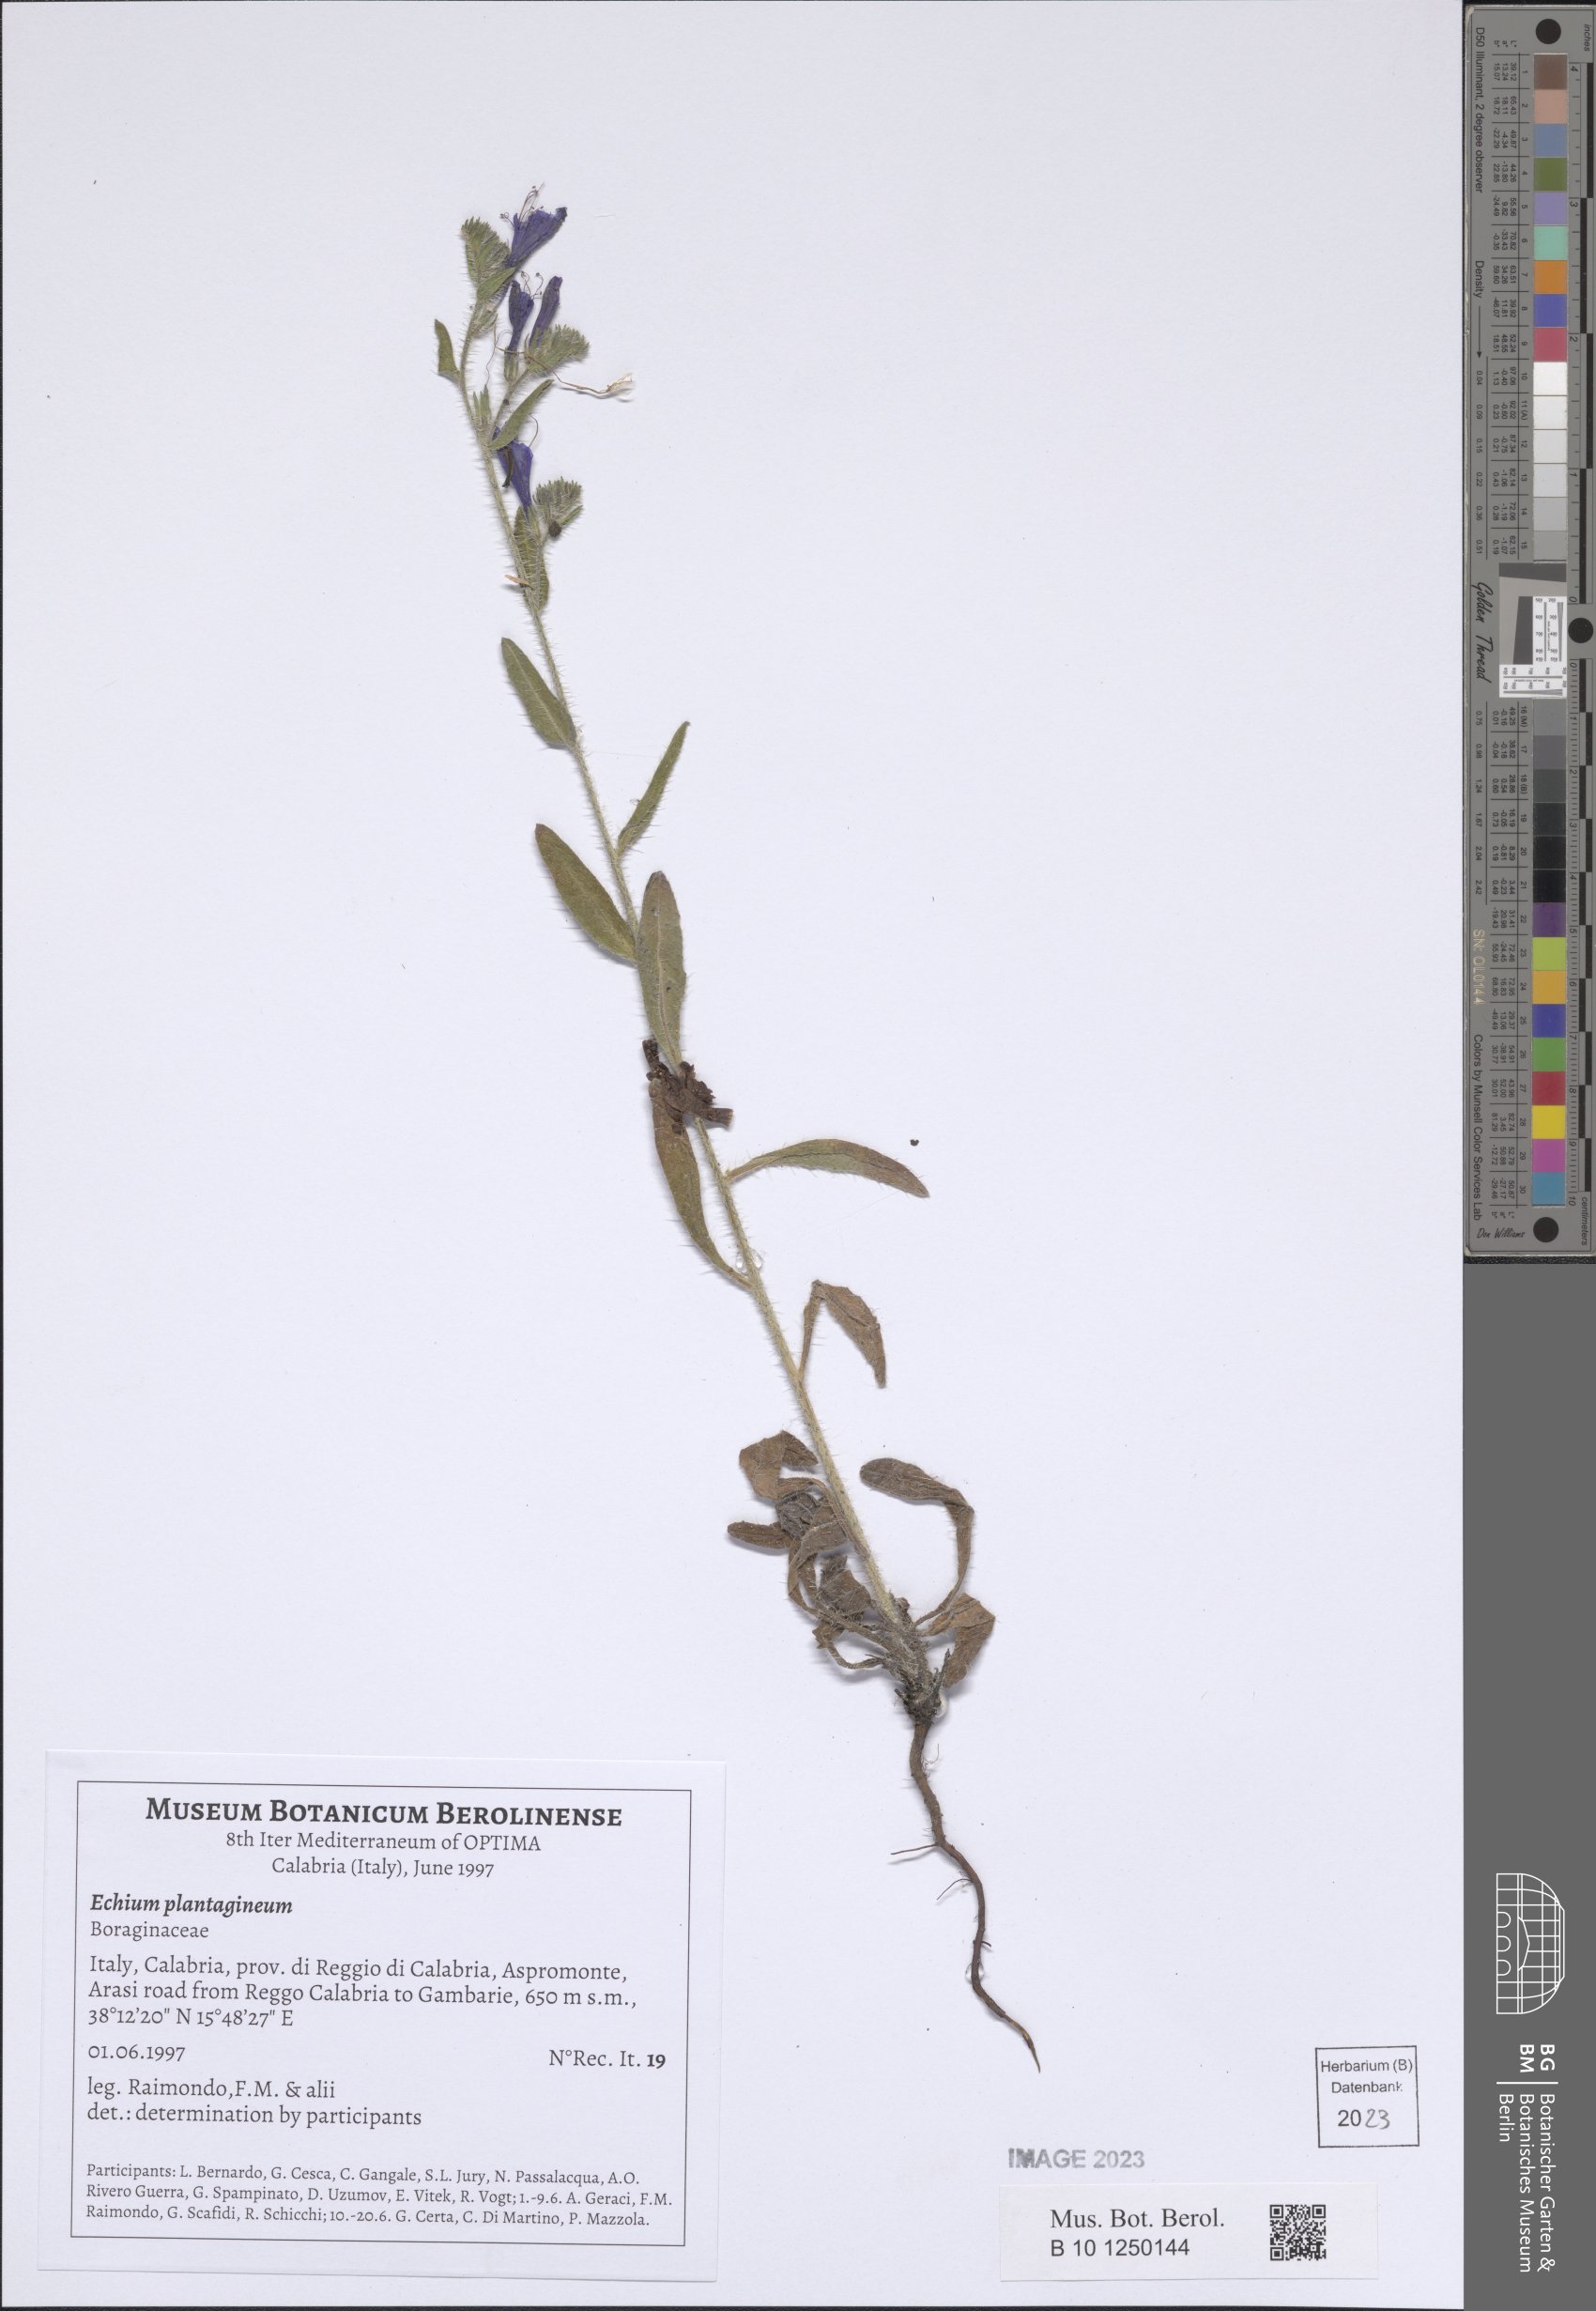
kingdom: Plantae
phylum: Tracheophyta
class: Magnoliopsida
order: Boraginales
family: Boraginaceae
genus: Echium
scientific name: Echium plantagineum
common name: Purple viper's-bugloss
